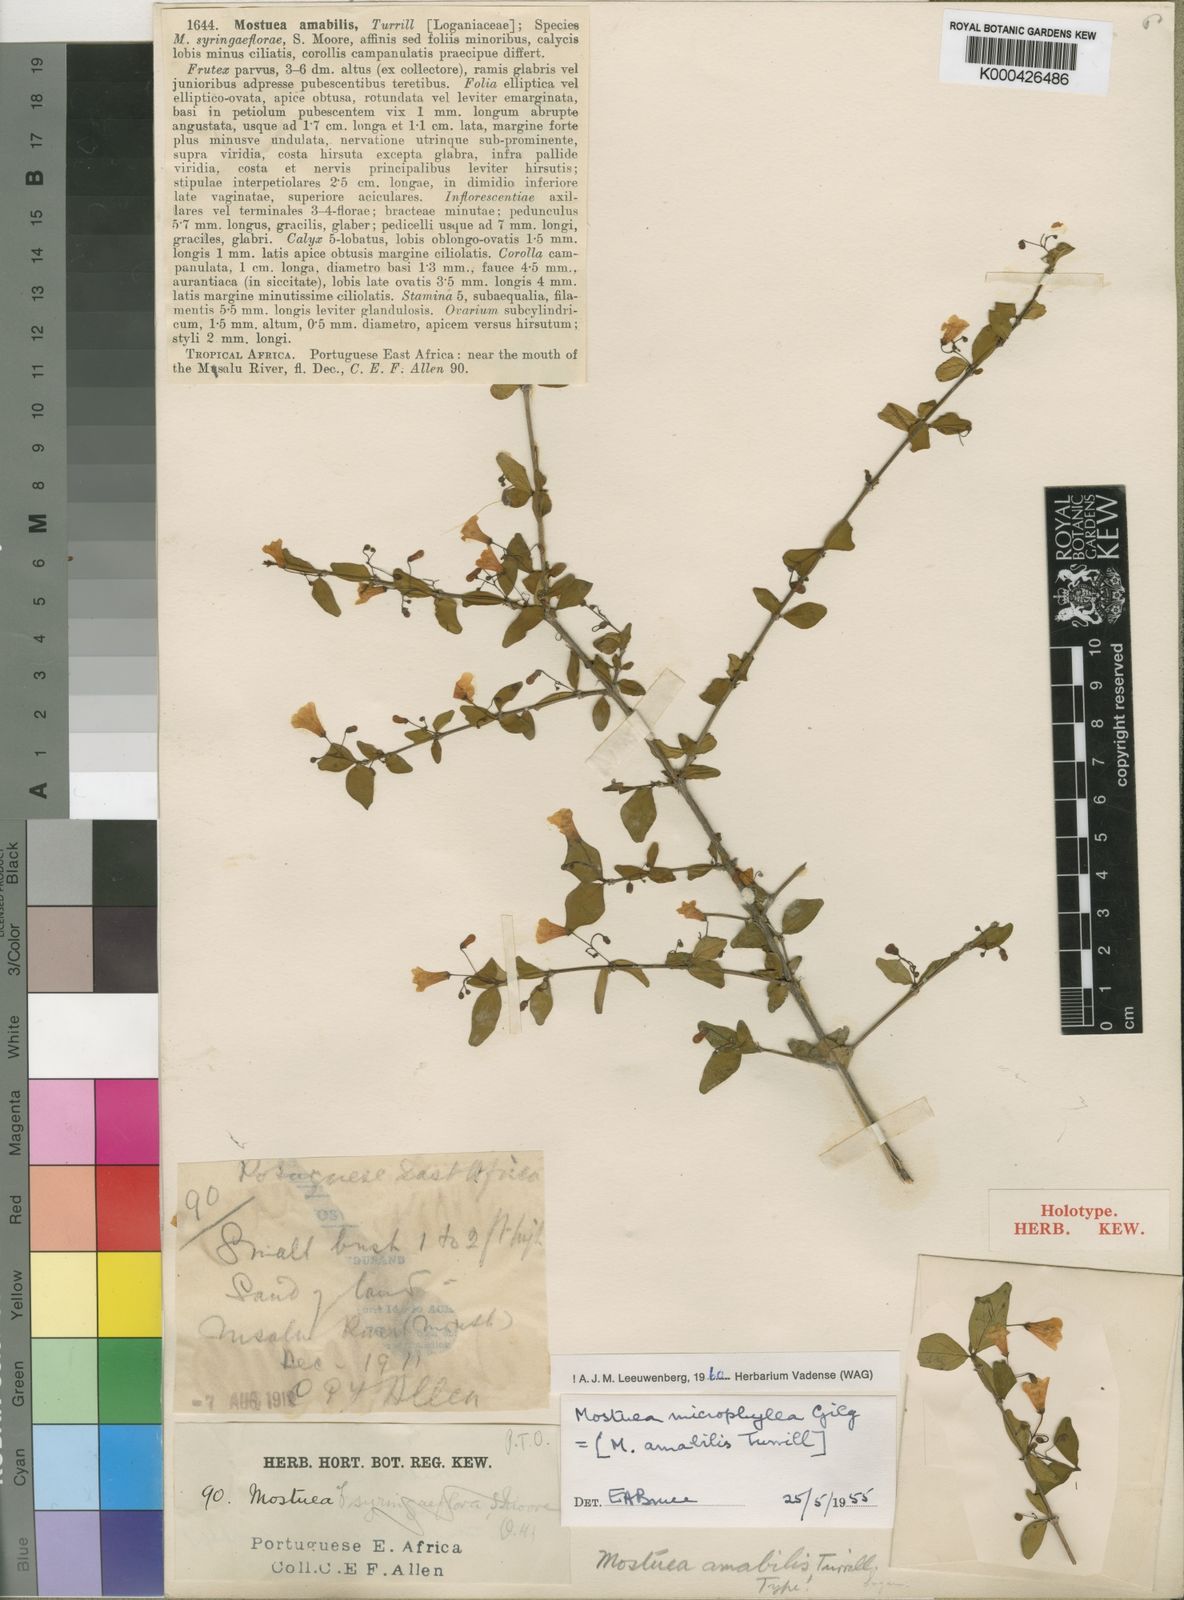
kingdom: Plantae
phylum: Tracheophyta
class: Magnoliopsida
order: Gentianales
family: Gelsemiaceae
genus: Mostuea
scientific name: Mostuea microphylla
